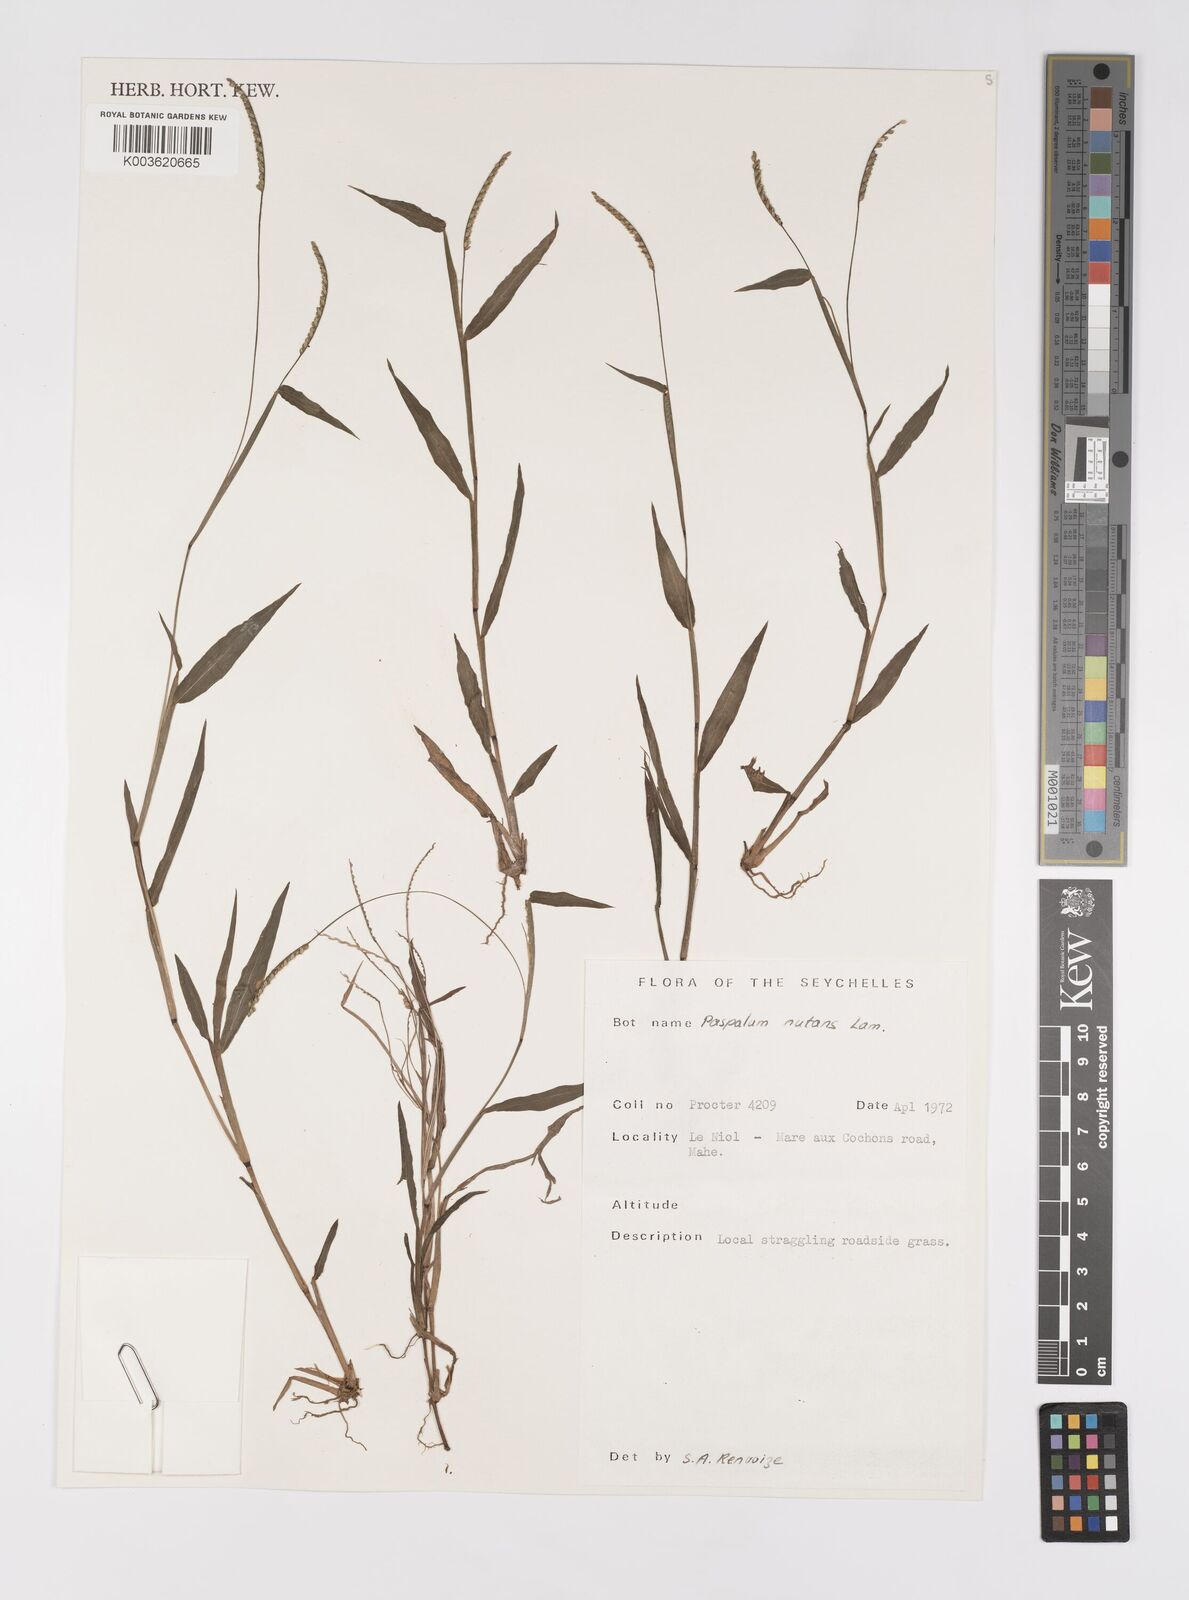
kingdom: Plantae
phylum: Tracheophyta
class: Liliopsida
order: Poales
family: Poaceae
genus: Paspalum
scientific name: Paspalum nutans
